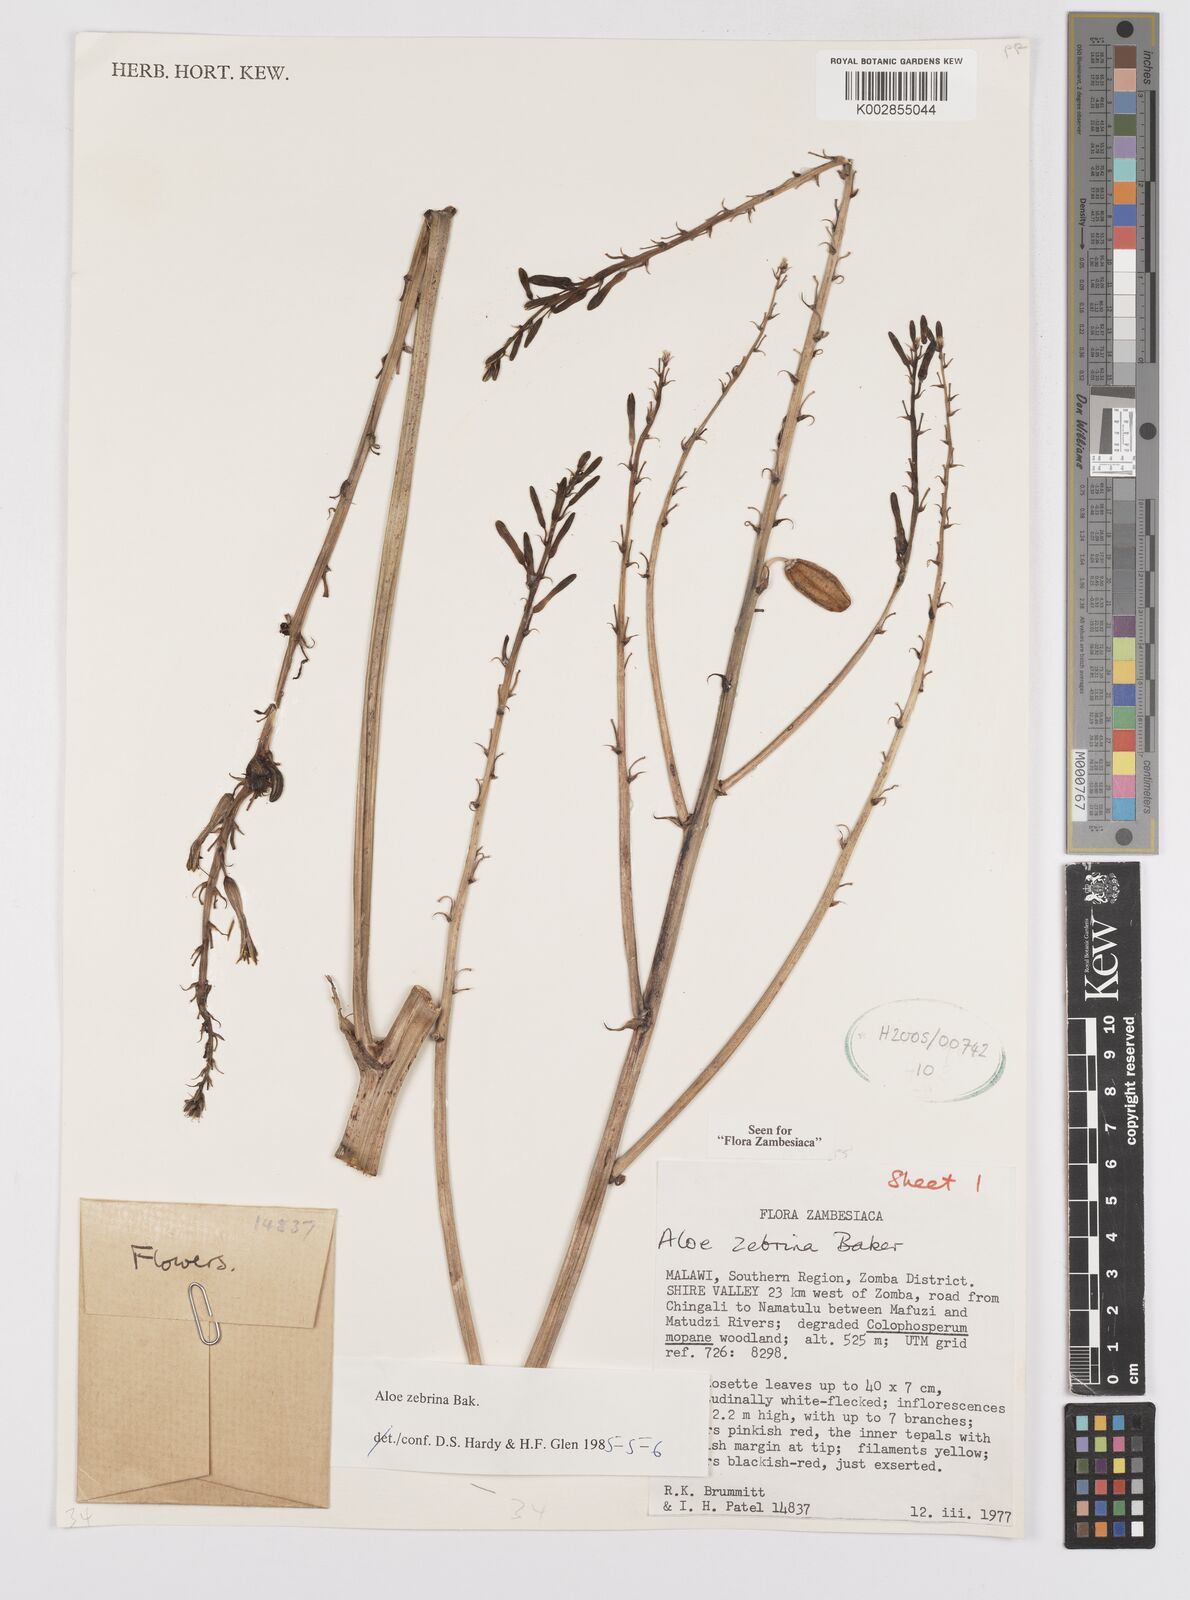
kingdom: Plantae
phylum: Tracheophyta
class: Liliopsida
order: Asparagales
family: Asphodelaceae
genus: Aloe
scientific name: Aloe zebrina
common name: Zebra-leaf aloe
